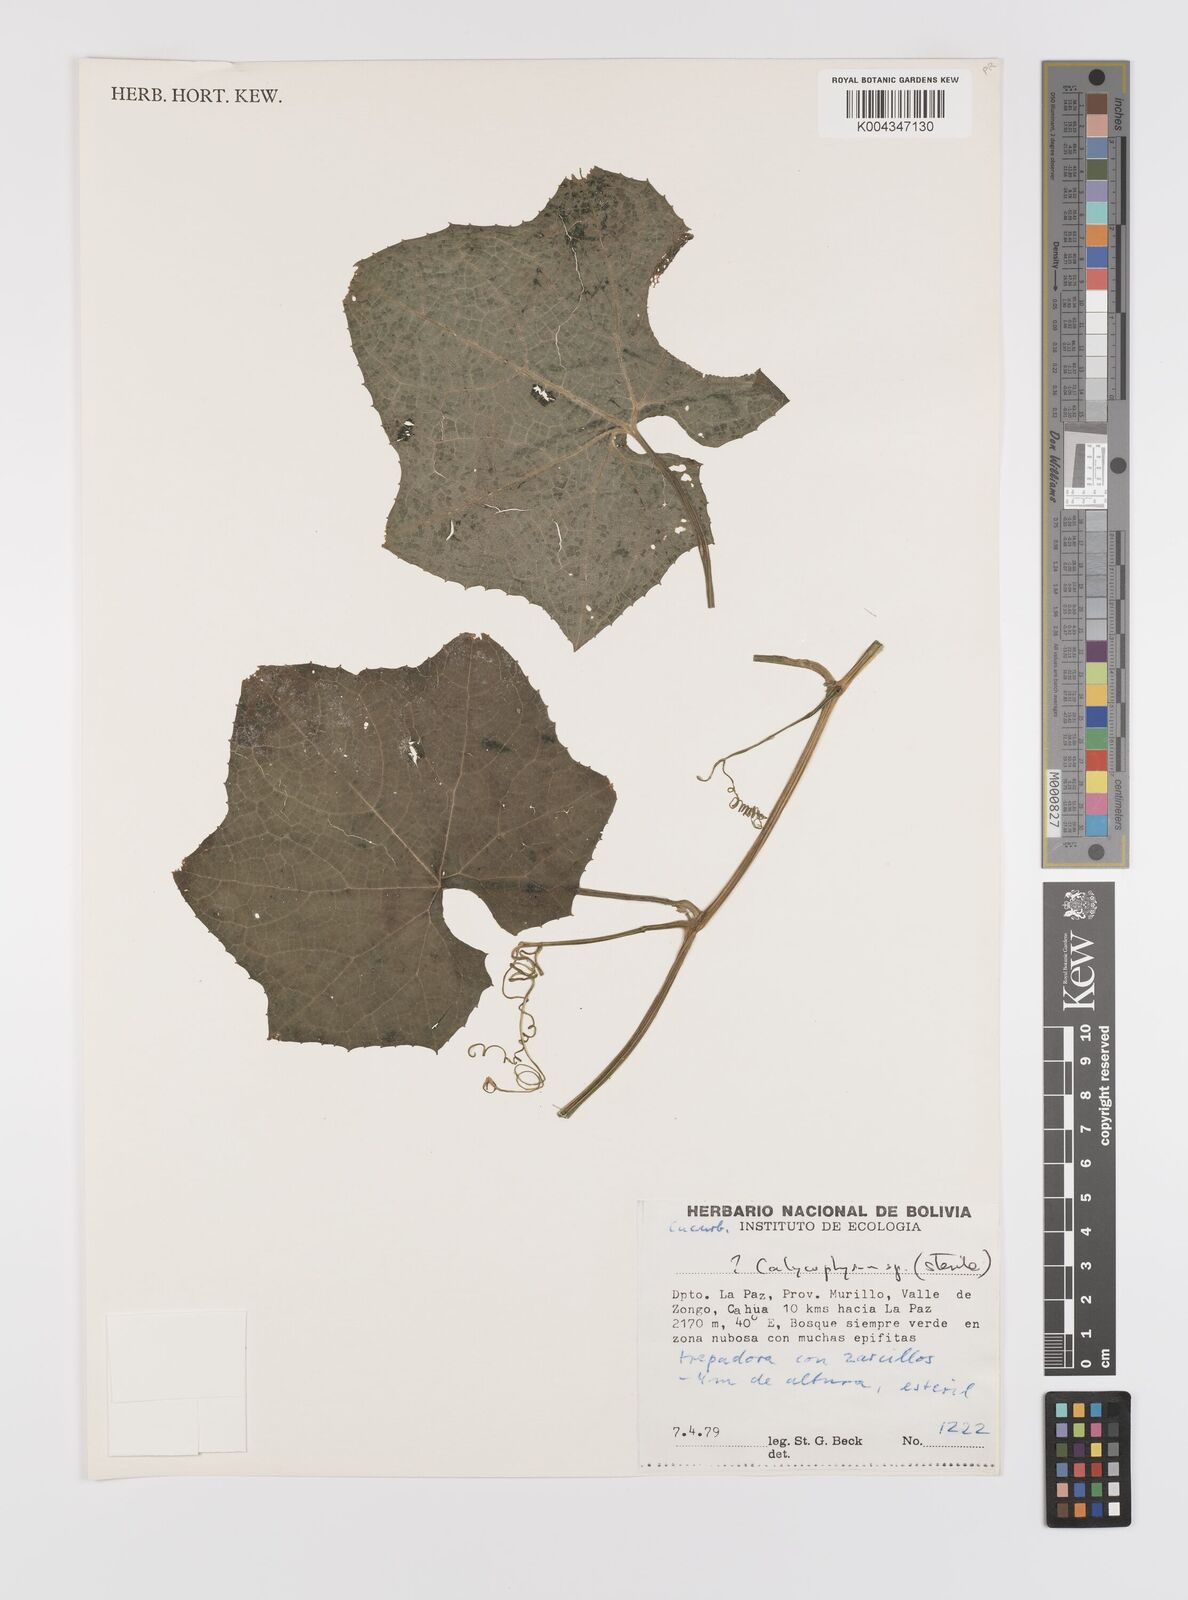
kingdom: Plantae
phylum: Tracheophyta
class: Magnoliopsida
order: Cucurbitales
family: Cucurbitaceae
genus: Calycophysum
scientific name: Calycophysum
